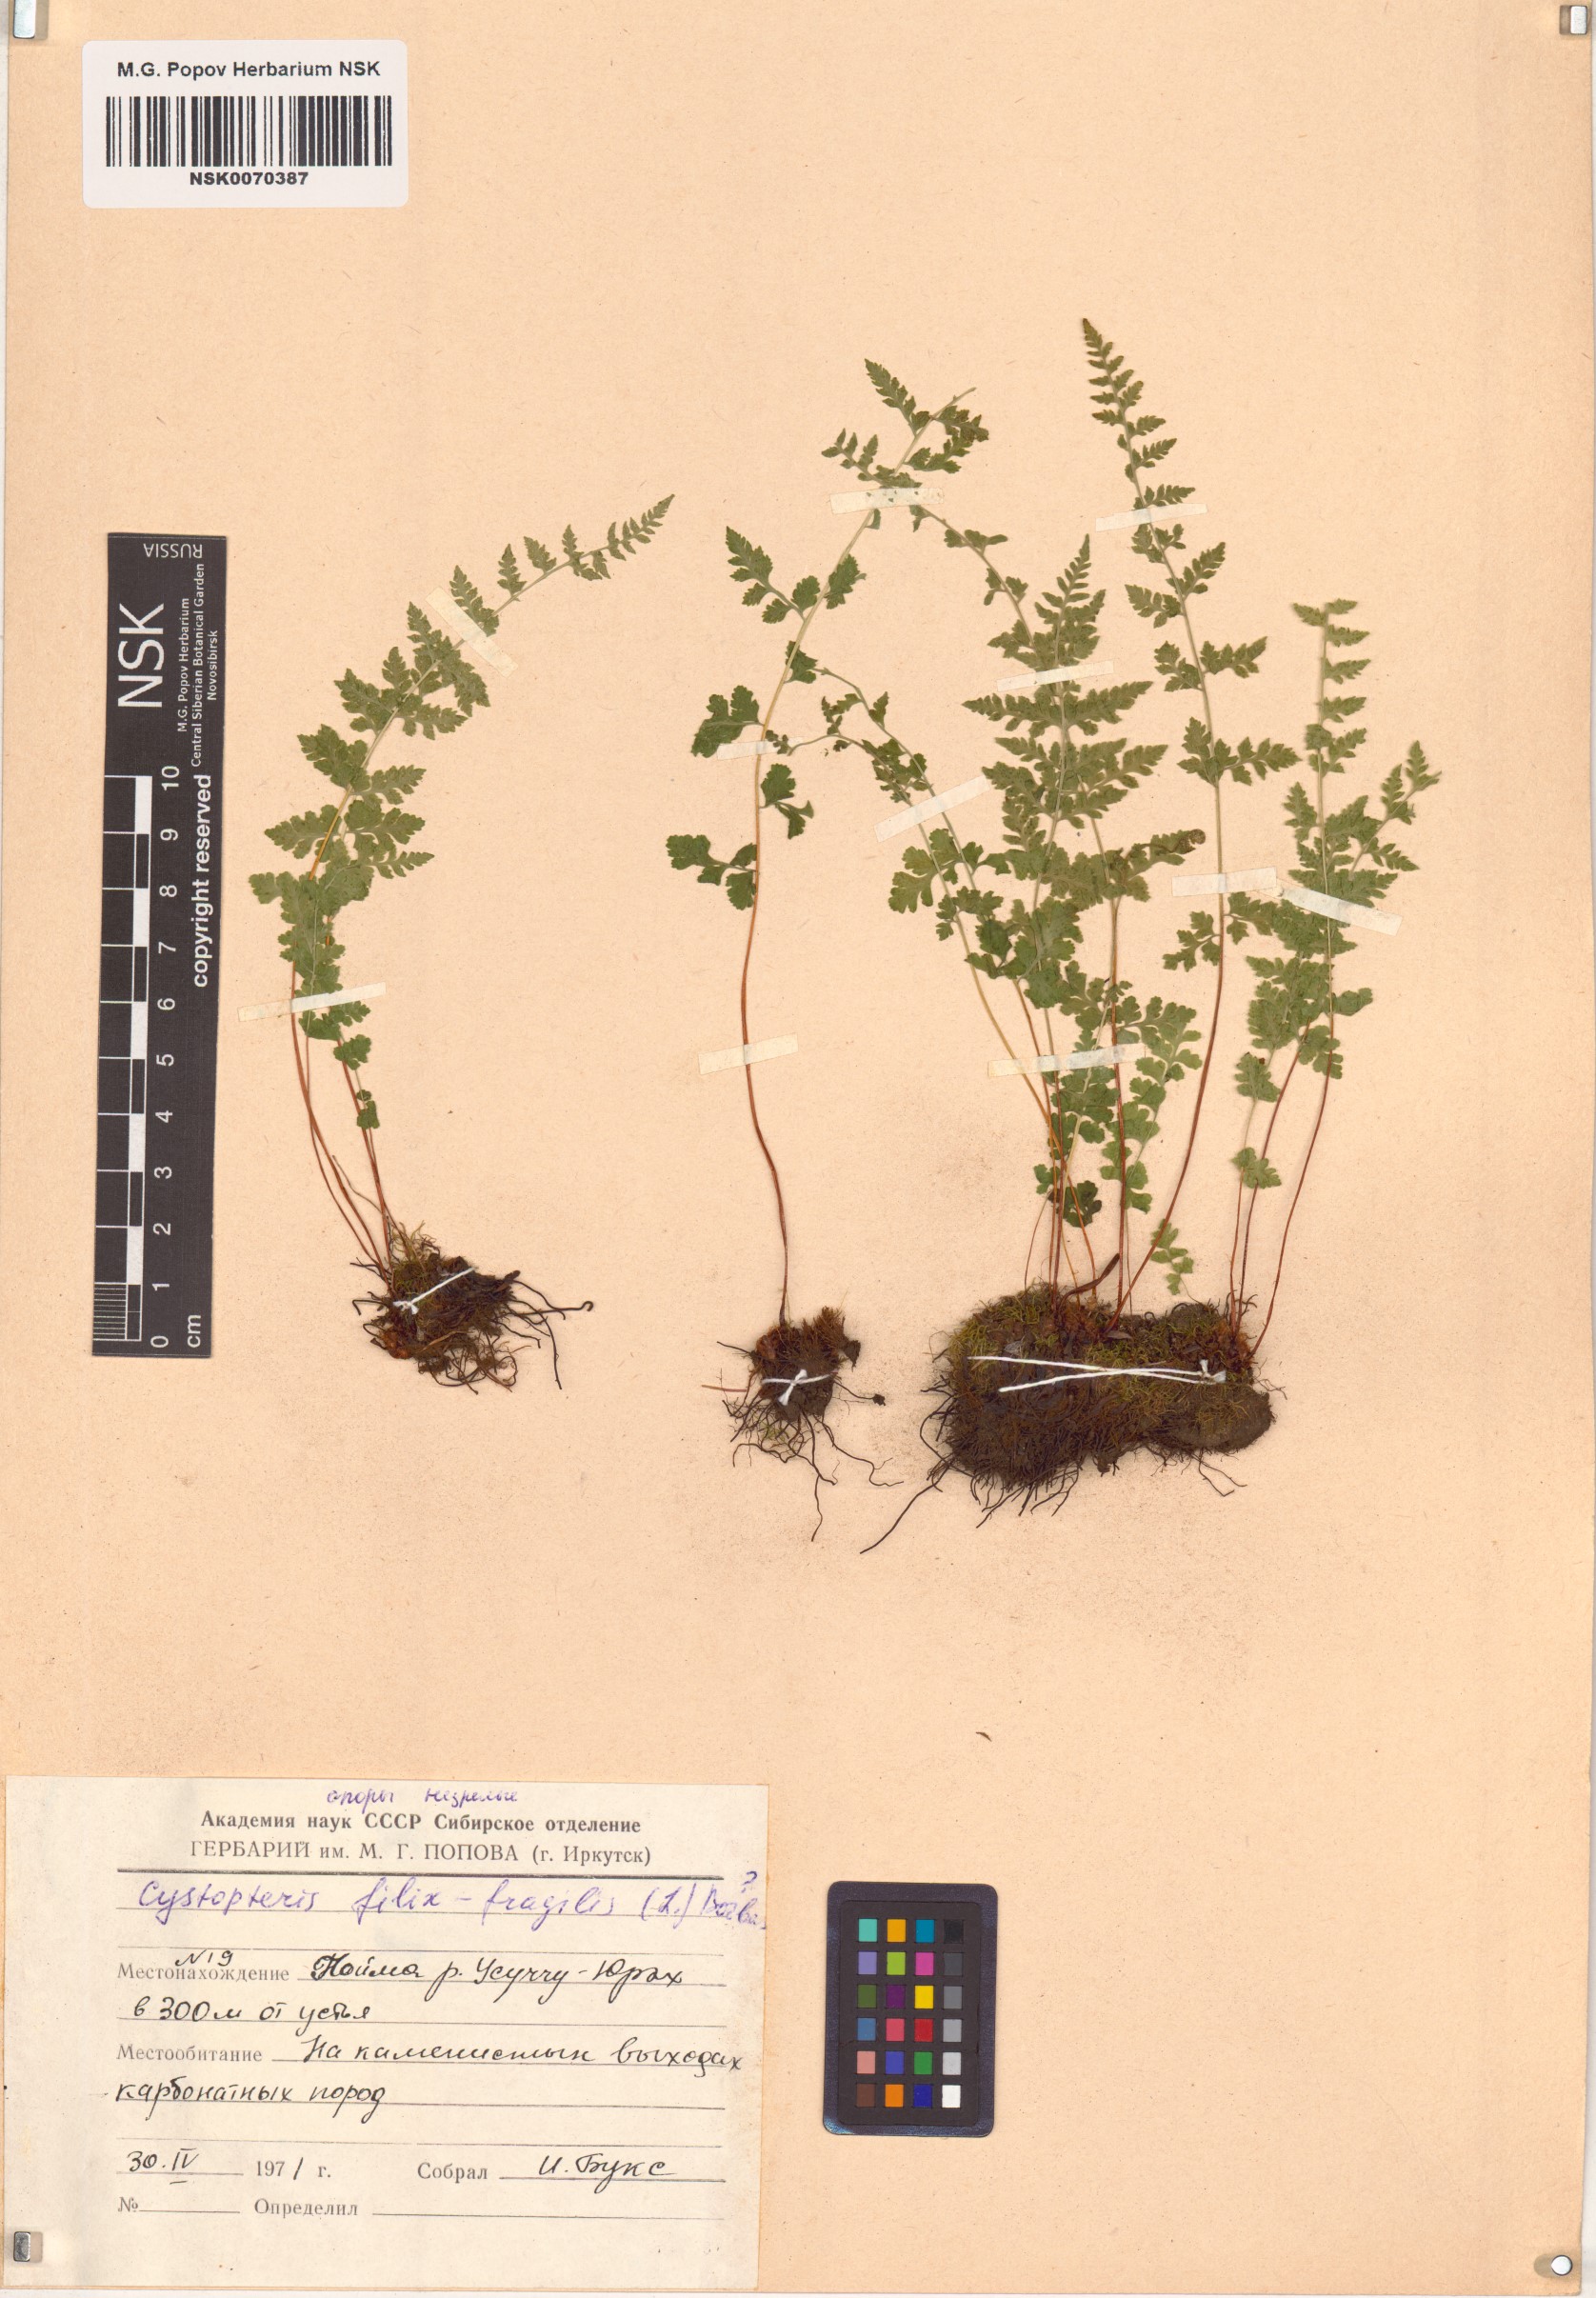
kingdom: Plantae
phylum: Tracheophyta
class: Polypodiopsida
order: Polypodiales
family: Cystopteridaceae
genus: Cystopteris
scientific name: Cystopteris fragilis
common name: Brittle bladder fern
